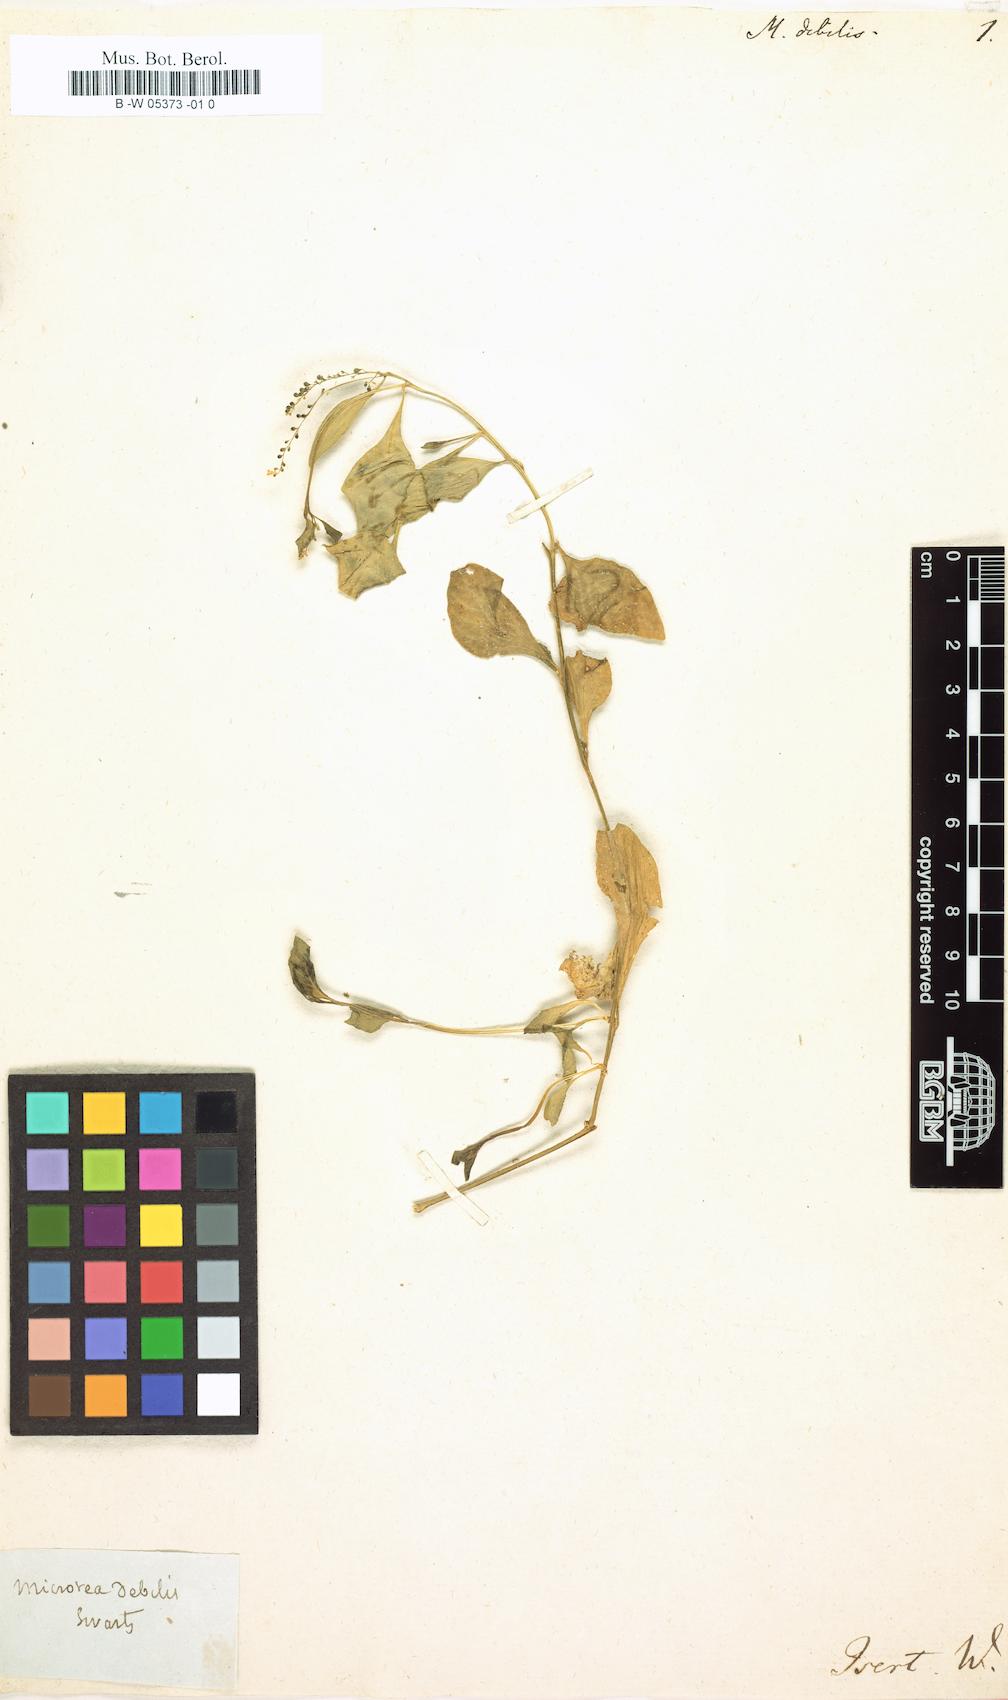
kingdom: Plantae
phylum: Tracheophyta
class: Magnoliopsida
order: Caryophyllales
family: Microteaceae
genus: Microtea
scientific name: Microtea debilis
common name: Weak jumby peppe
